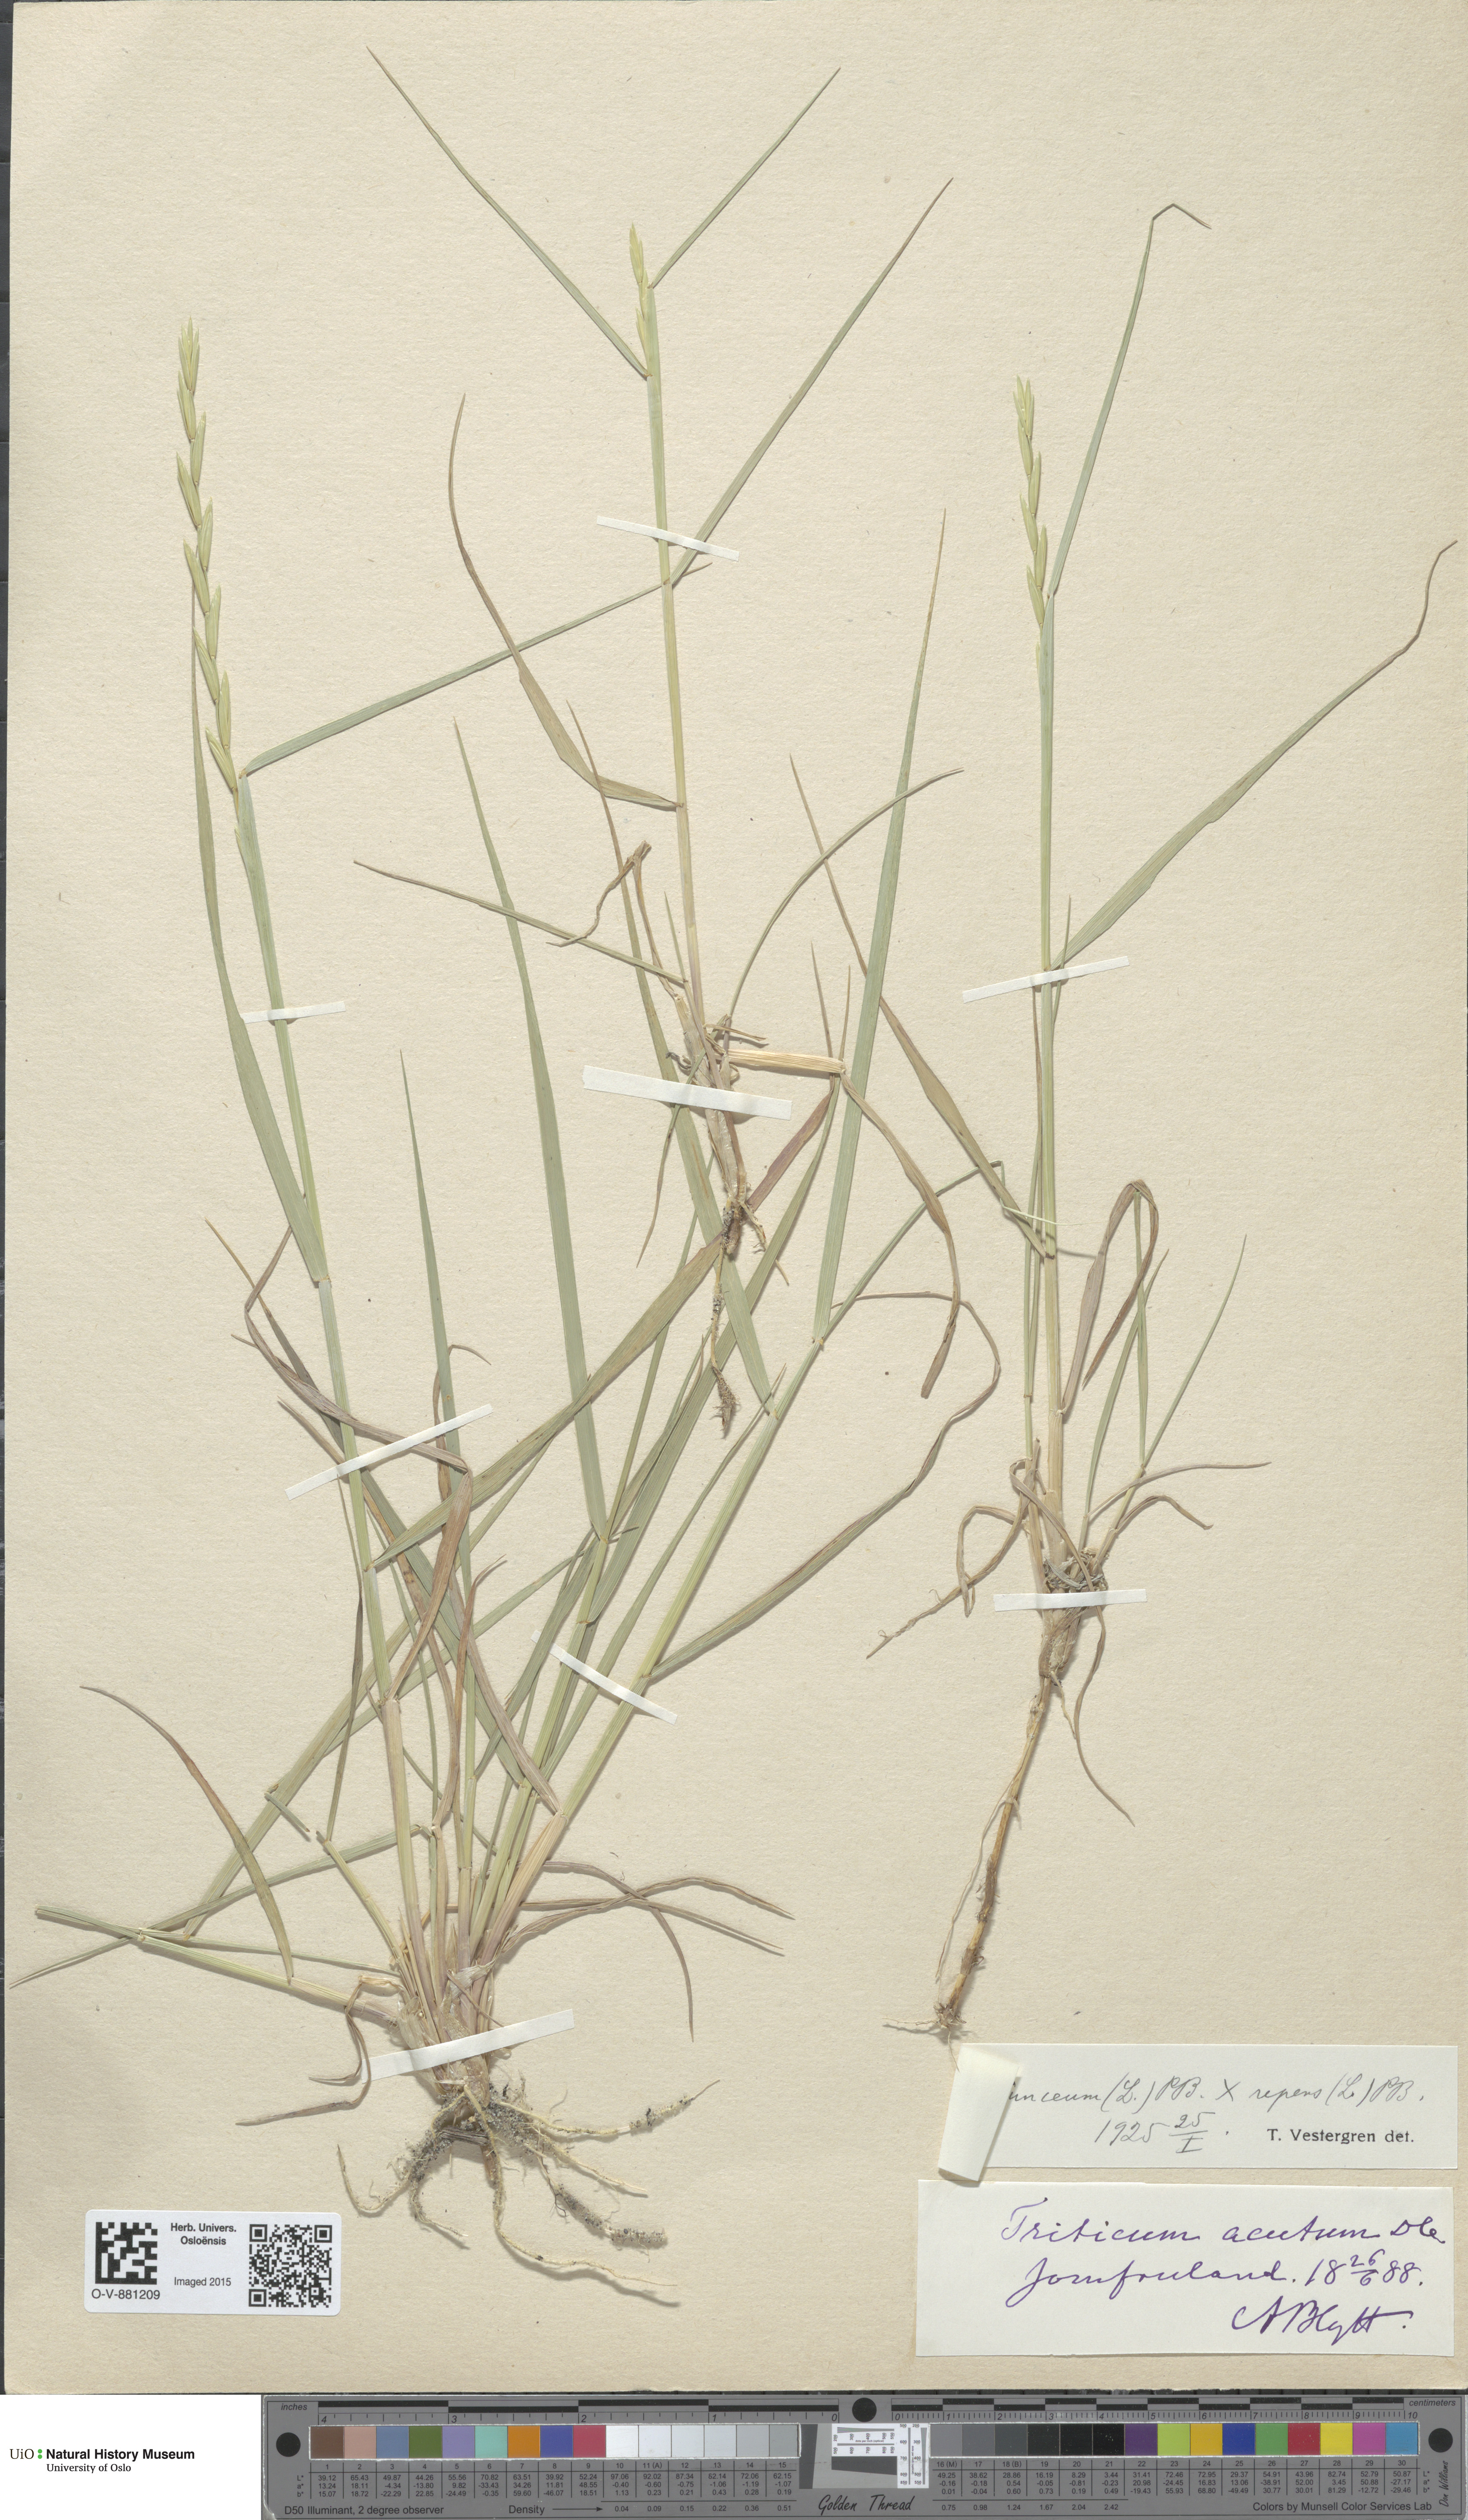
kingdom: Plantae
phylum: Tracheophyta
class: Liliopsida
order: Poales
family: Poaceae
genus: Elymus
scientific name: Elymus
